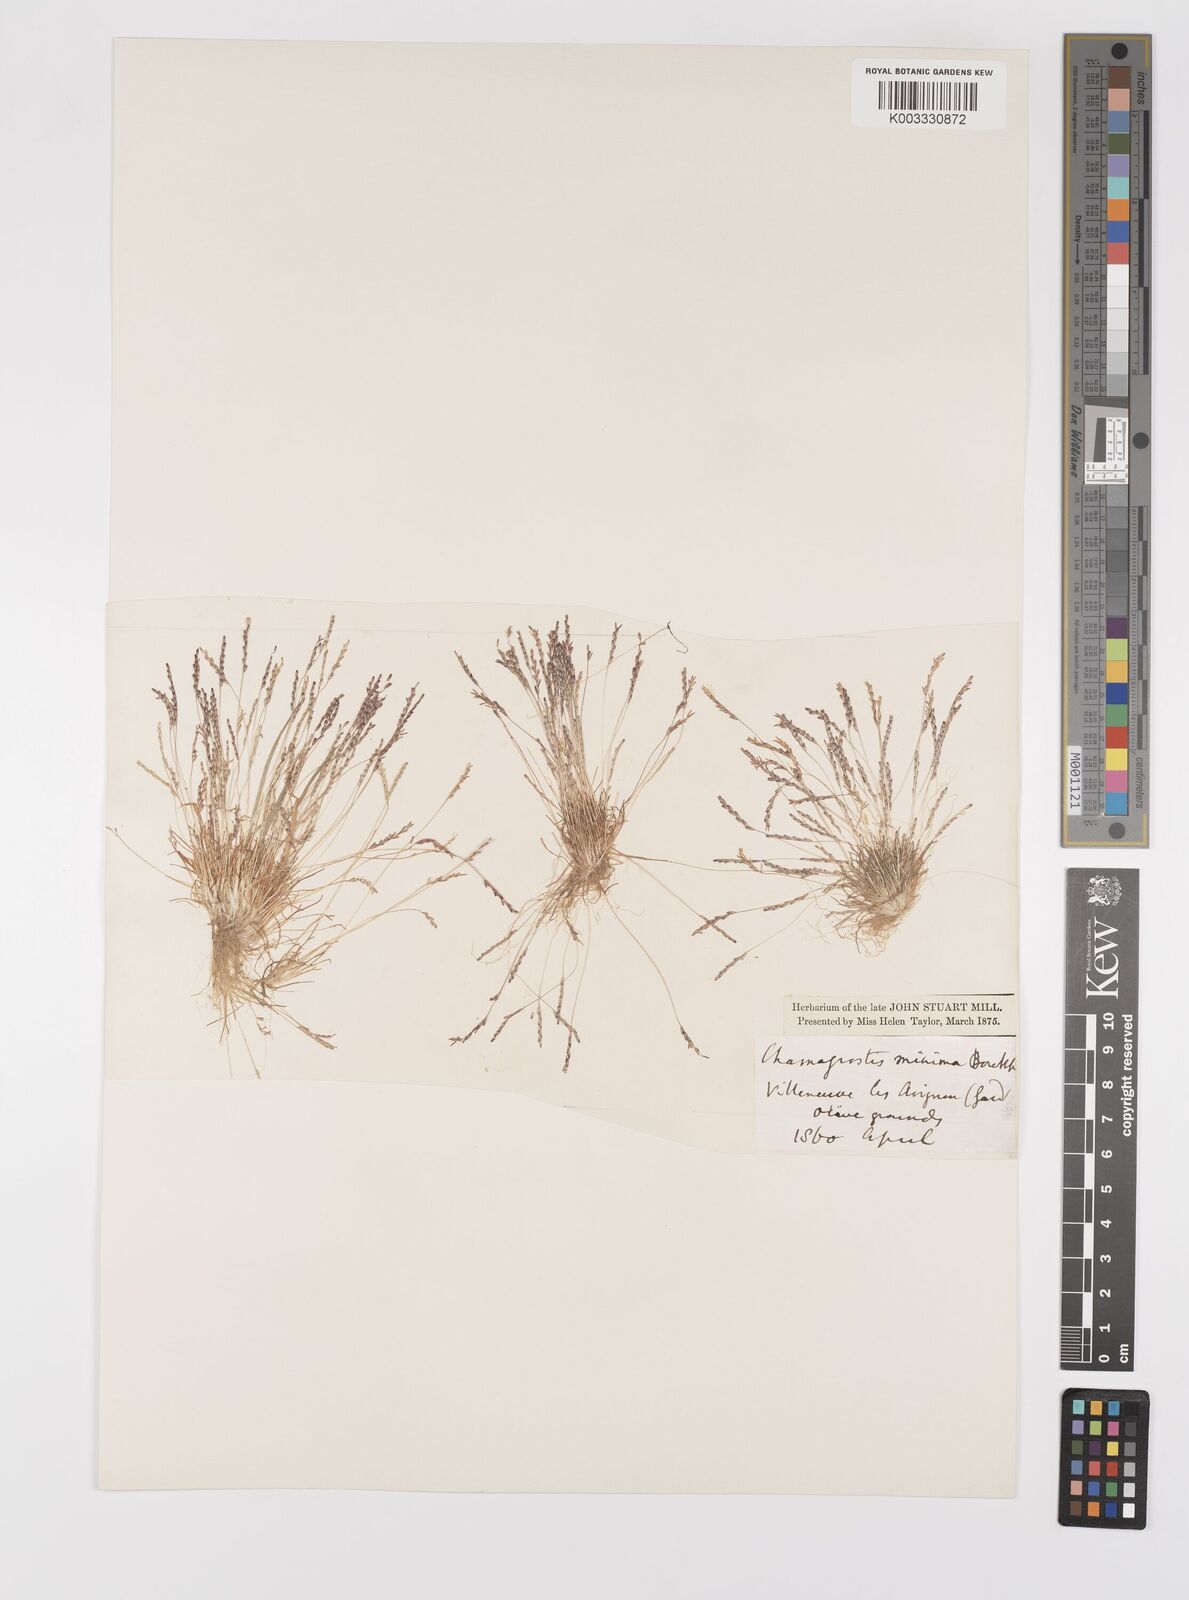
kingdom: Plantae
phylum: Tracheophyta
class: Liliopsida
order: Poales
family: Poaceae
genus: Mibora
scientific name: Mibora minima
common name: Early sand-grass
